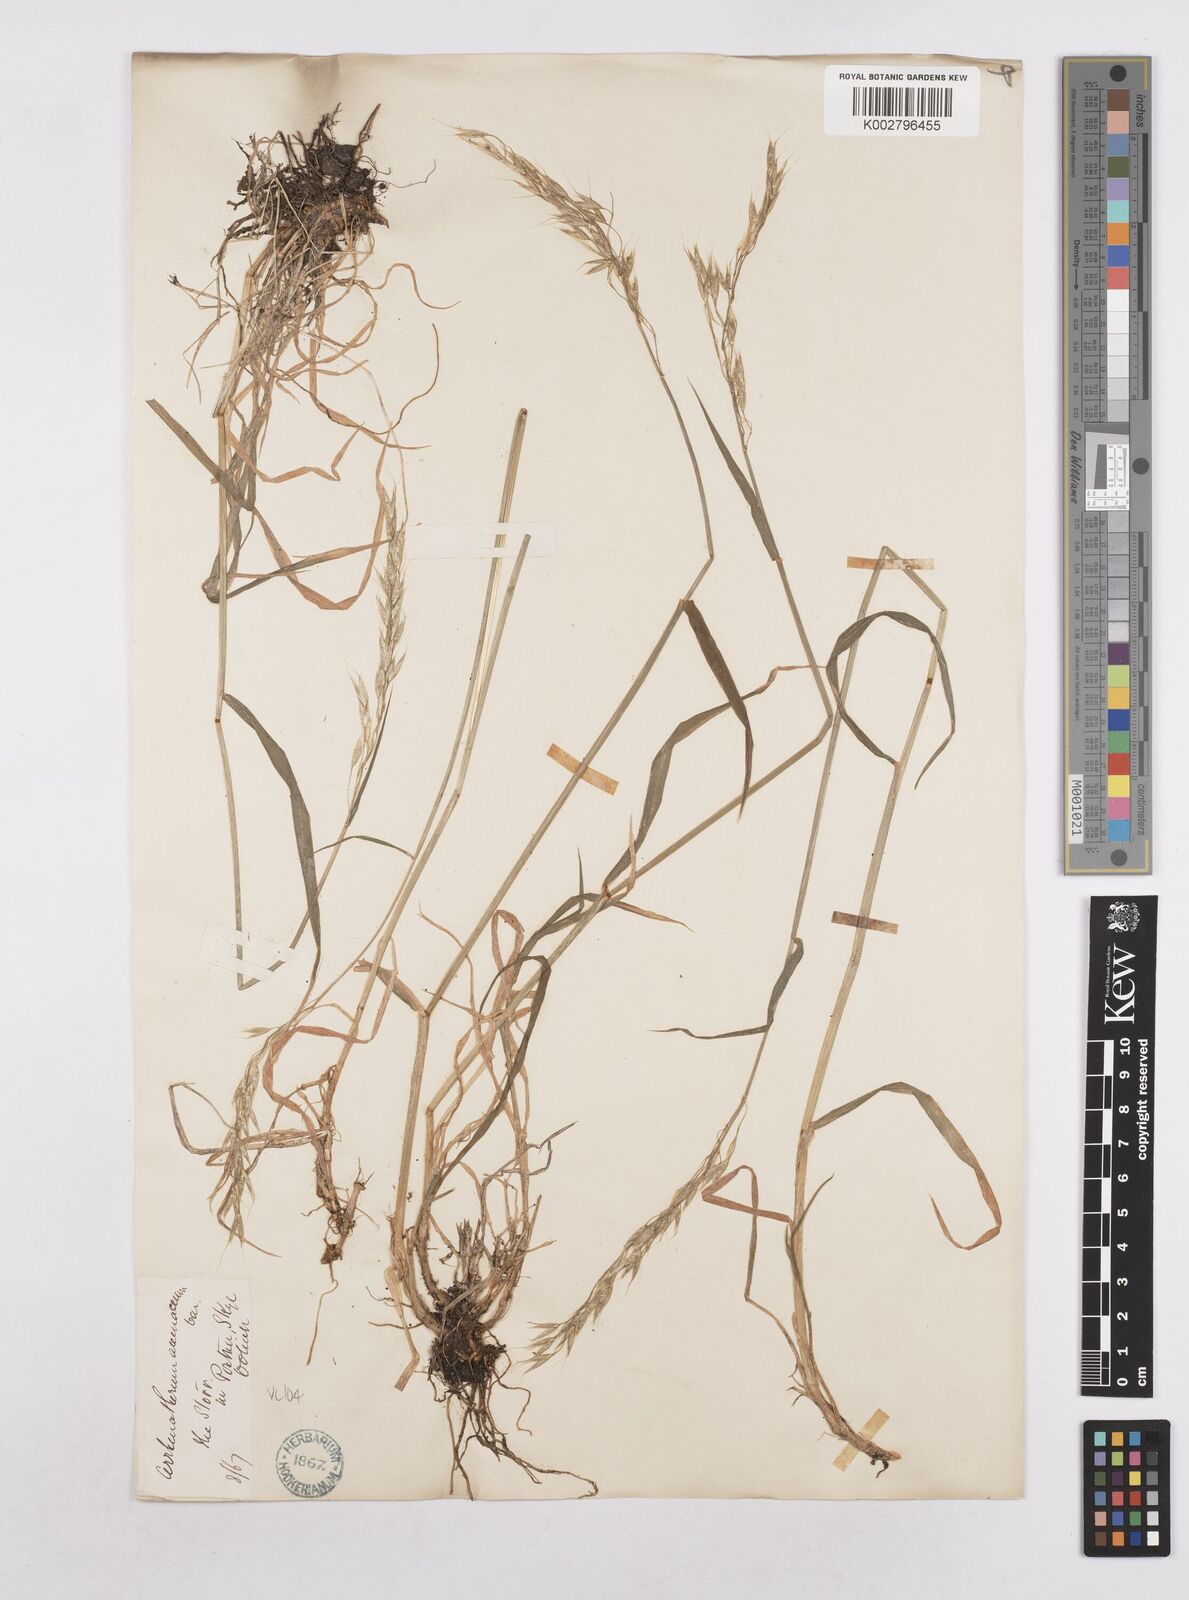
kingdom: Plantae
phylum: Tracheophyta
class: Liliopsida
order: Poales
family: Poaceae
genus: Arrhenatherum
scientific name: Arrhenatherum elatius
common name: Tall oatgrass
